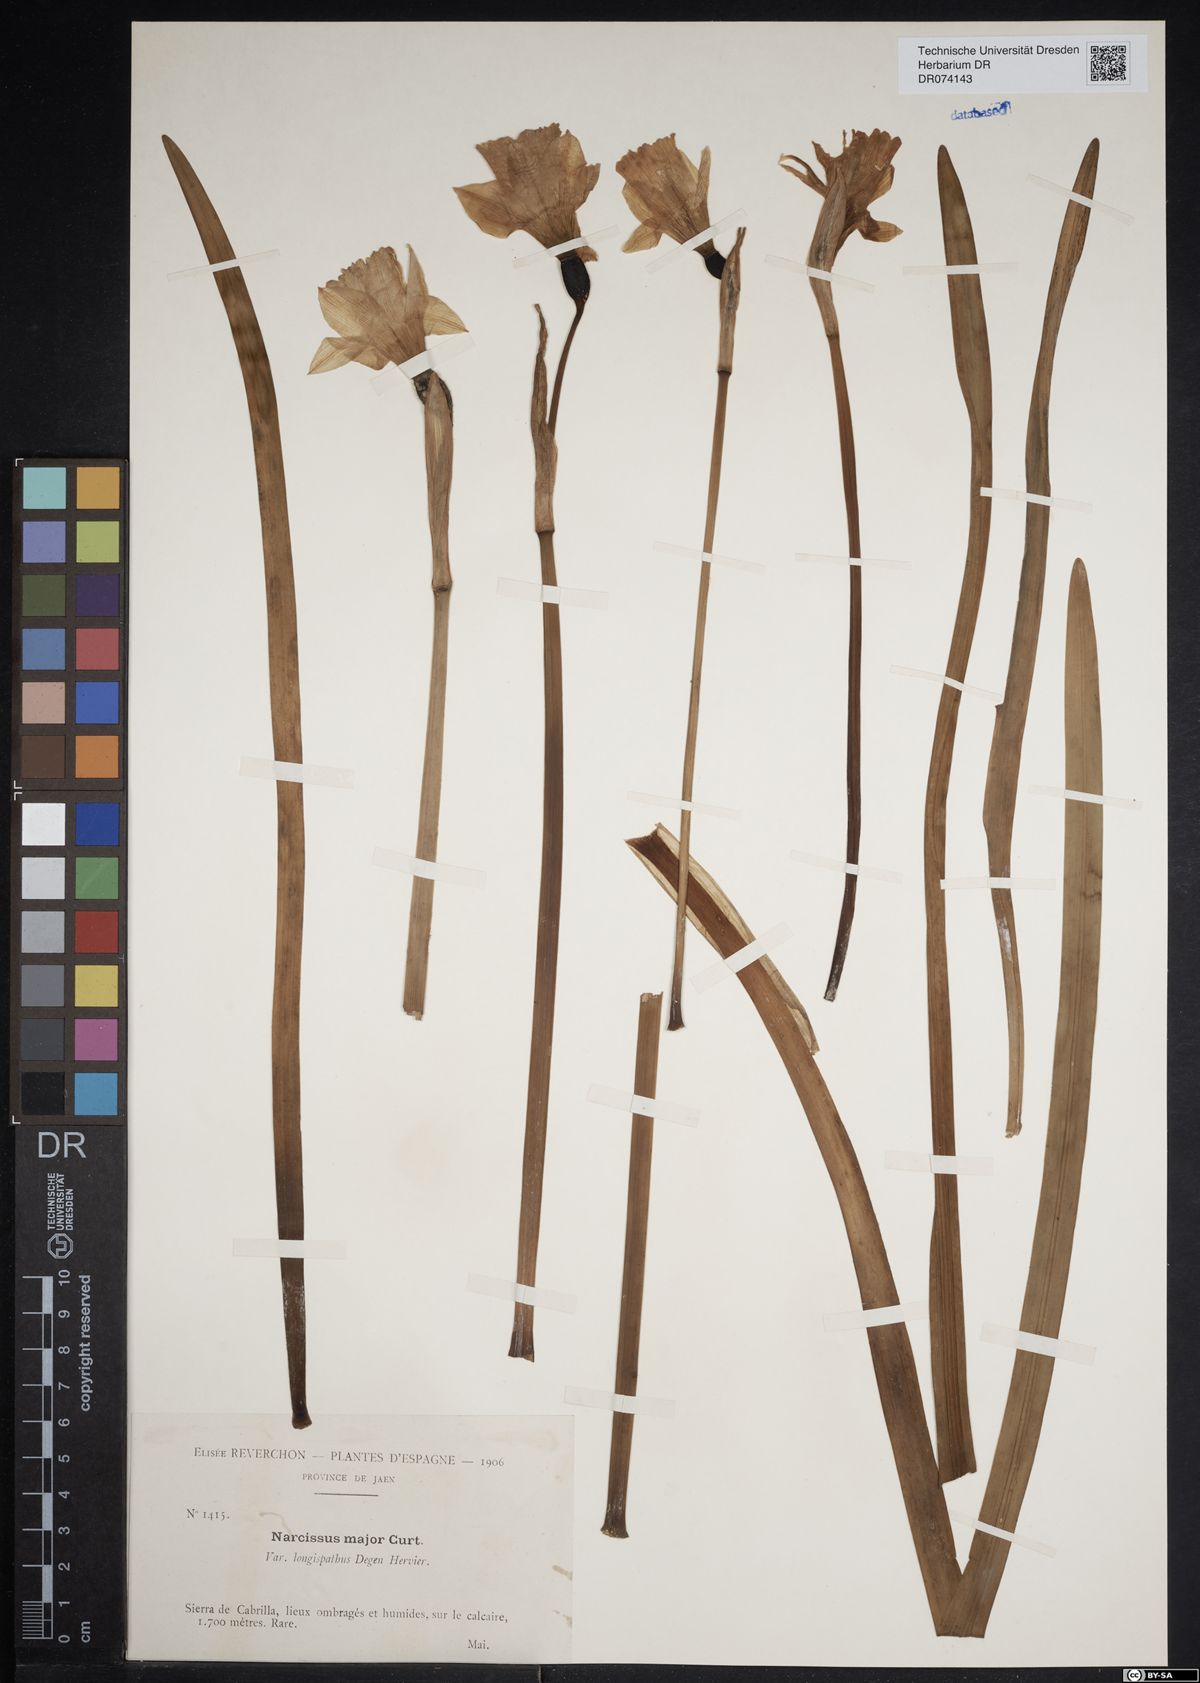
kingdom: Plantae
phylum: Tracheophyta
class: Liliopsida
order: Asparagales
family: Amaryllidaceae
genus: Narcissus
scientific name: Narcissus hispanicus
